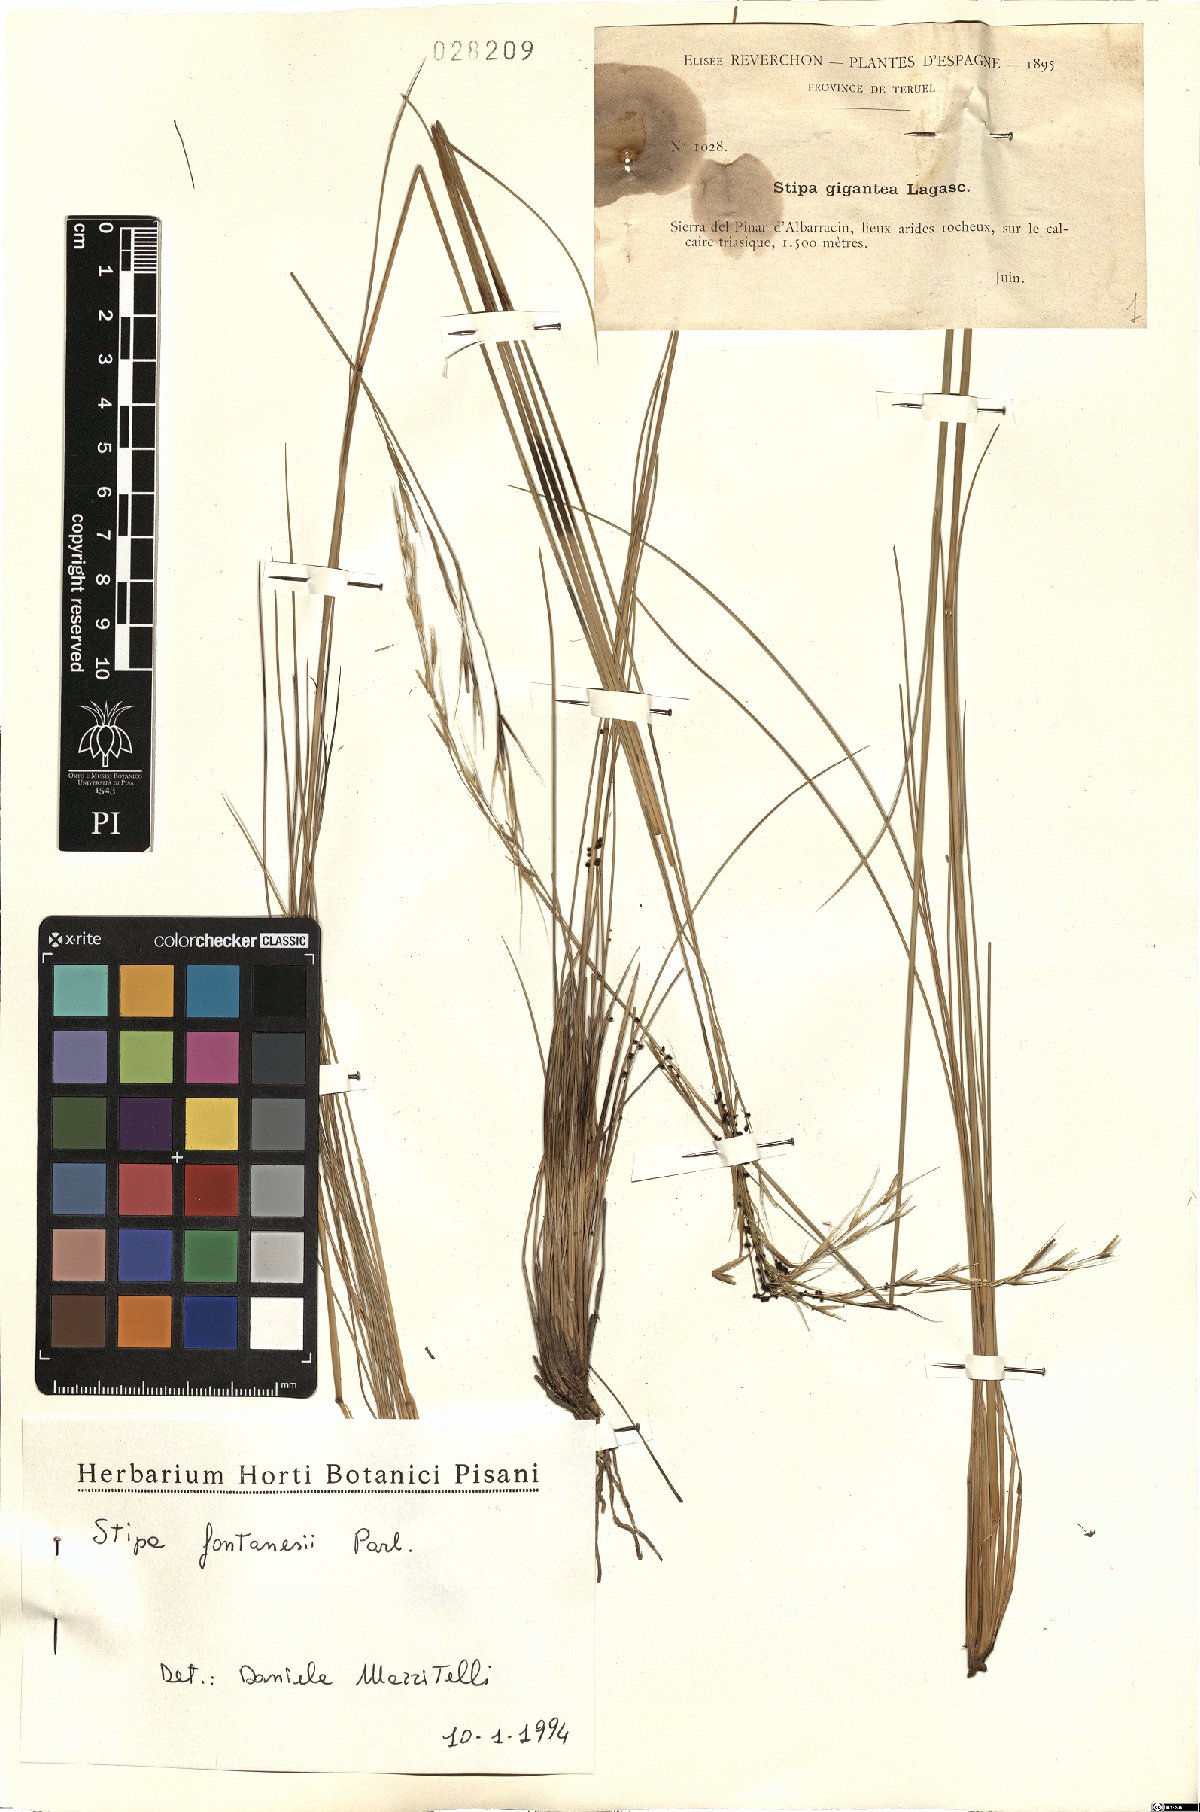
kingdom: Plantae
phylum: Tracheophyta
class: Liliopsida
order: Poales
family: Poaceae
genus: Stipa
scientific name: Stipa holosericea
